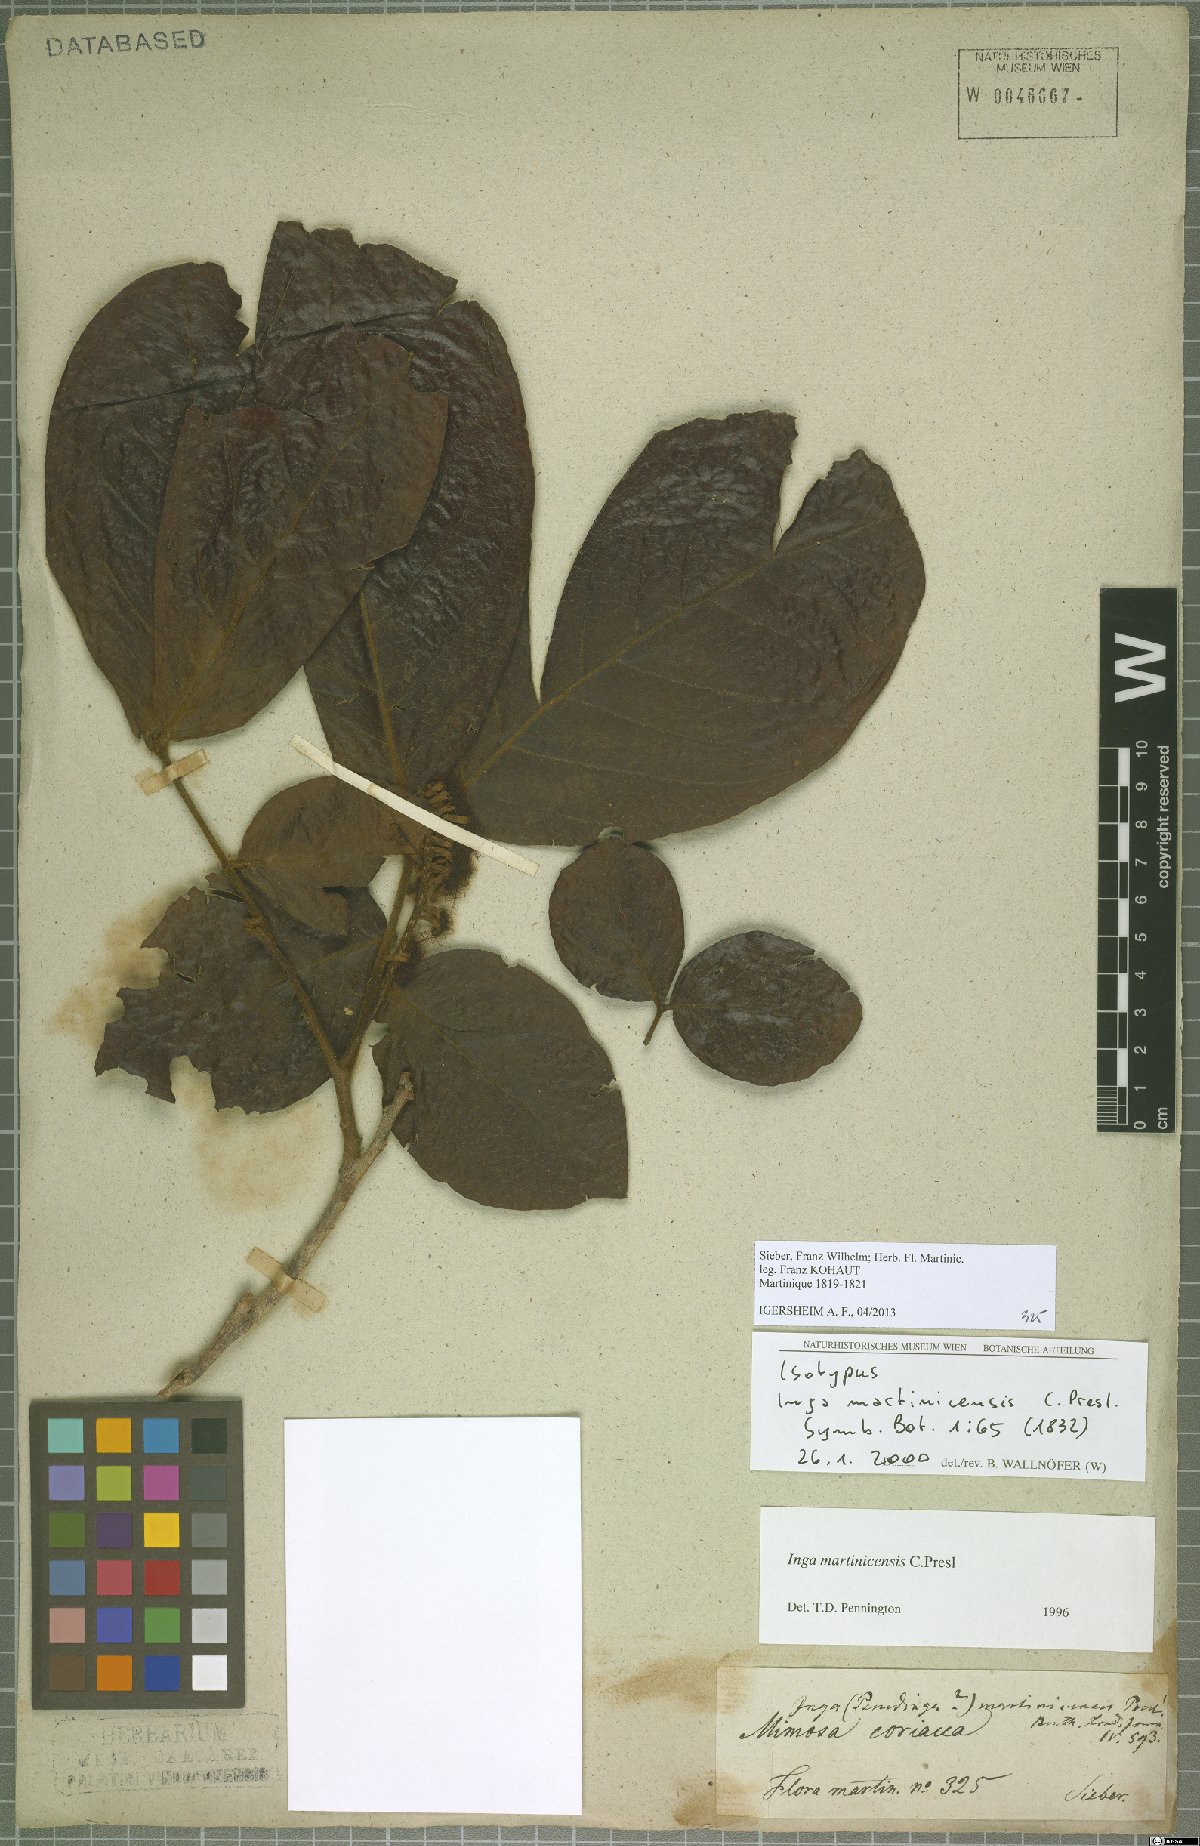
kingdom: Plantae
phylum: Tracheophyta
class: Magnoliopsida
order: Fabales
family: Fabaceae
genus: Inga
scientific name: Inga martinicensis
